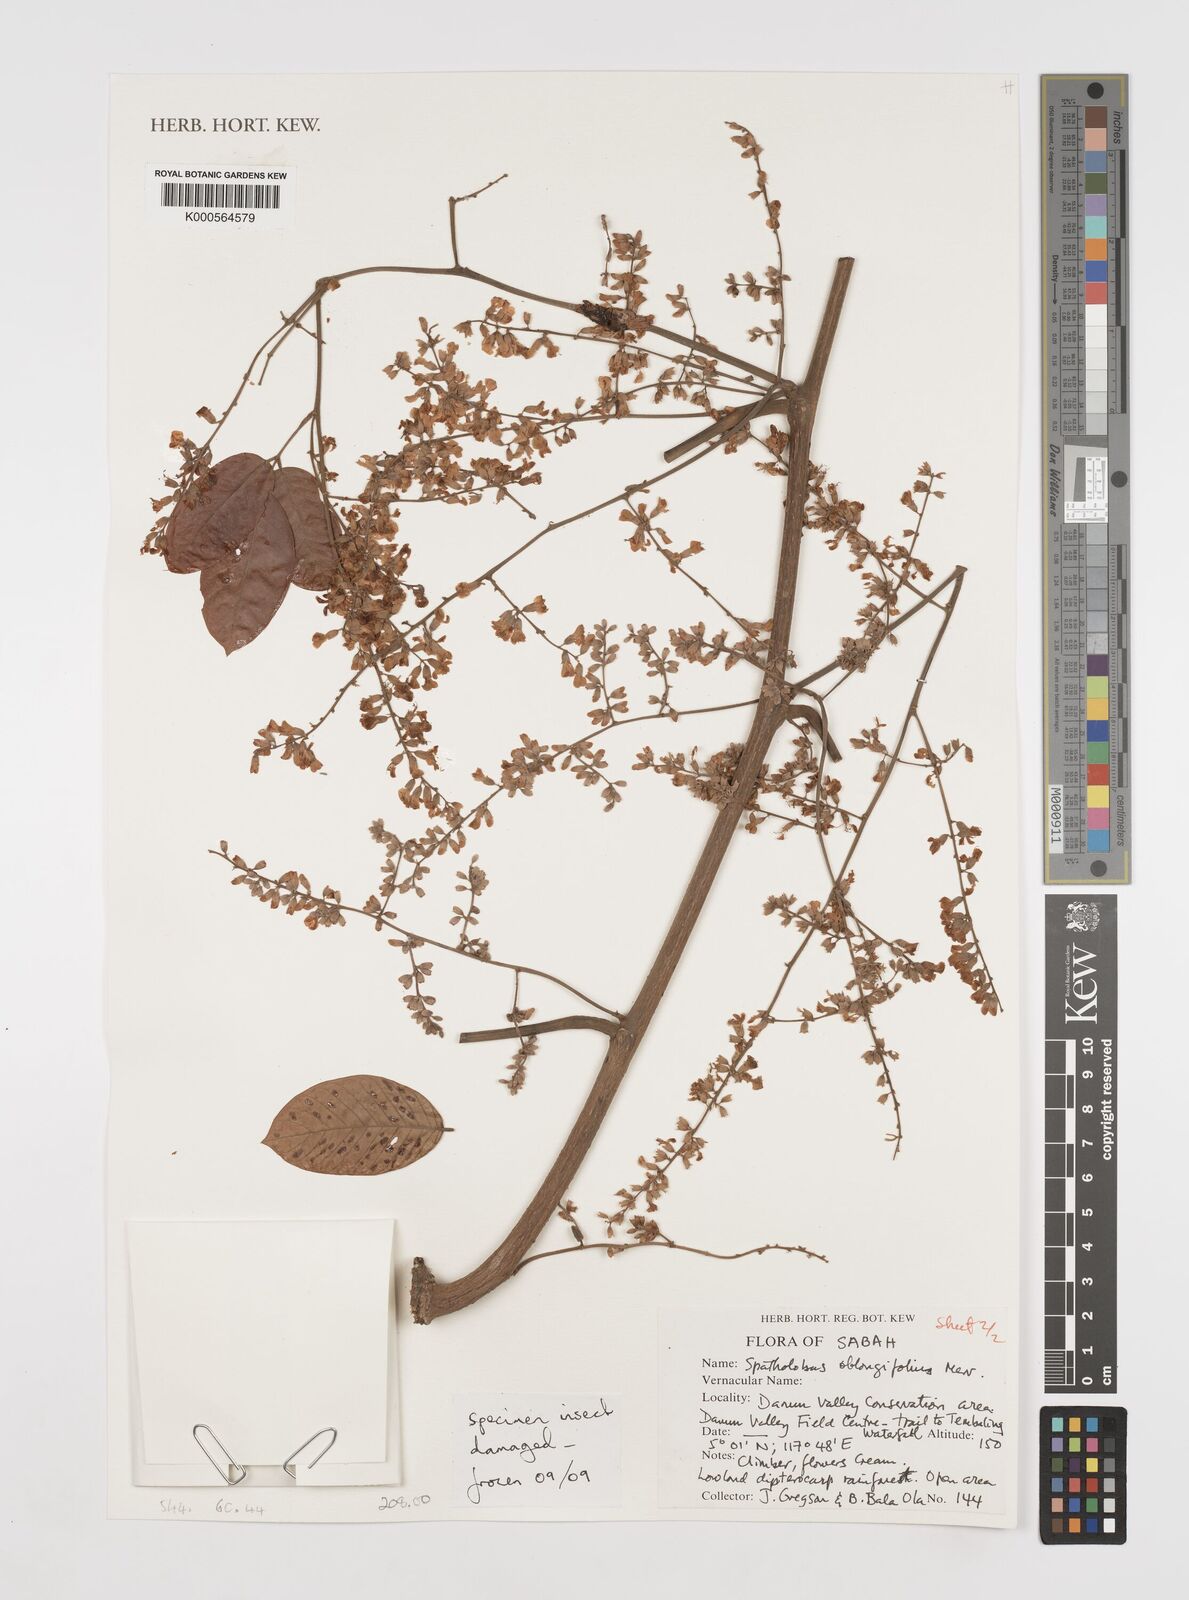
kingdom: Plantae
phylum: Tracheophyta
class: Magnoliopsida
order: Fabales
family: Fabaceae
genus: Spatholobus
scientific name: Spatholobus oblongifolius
